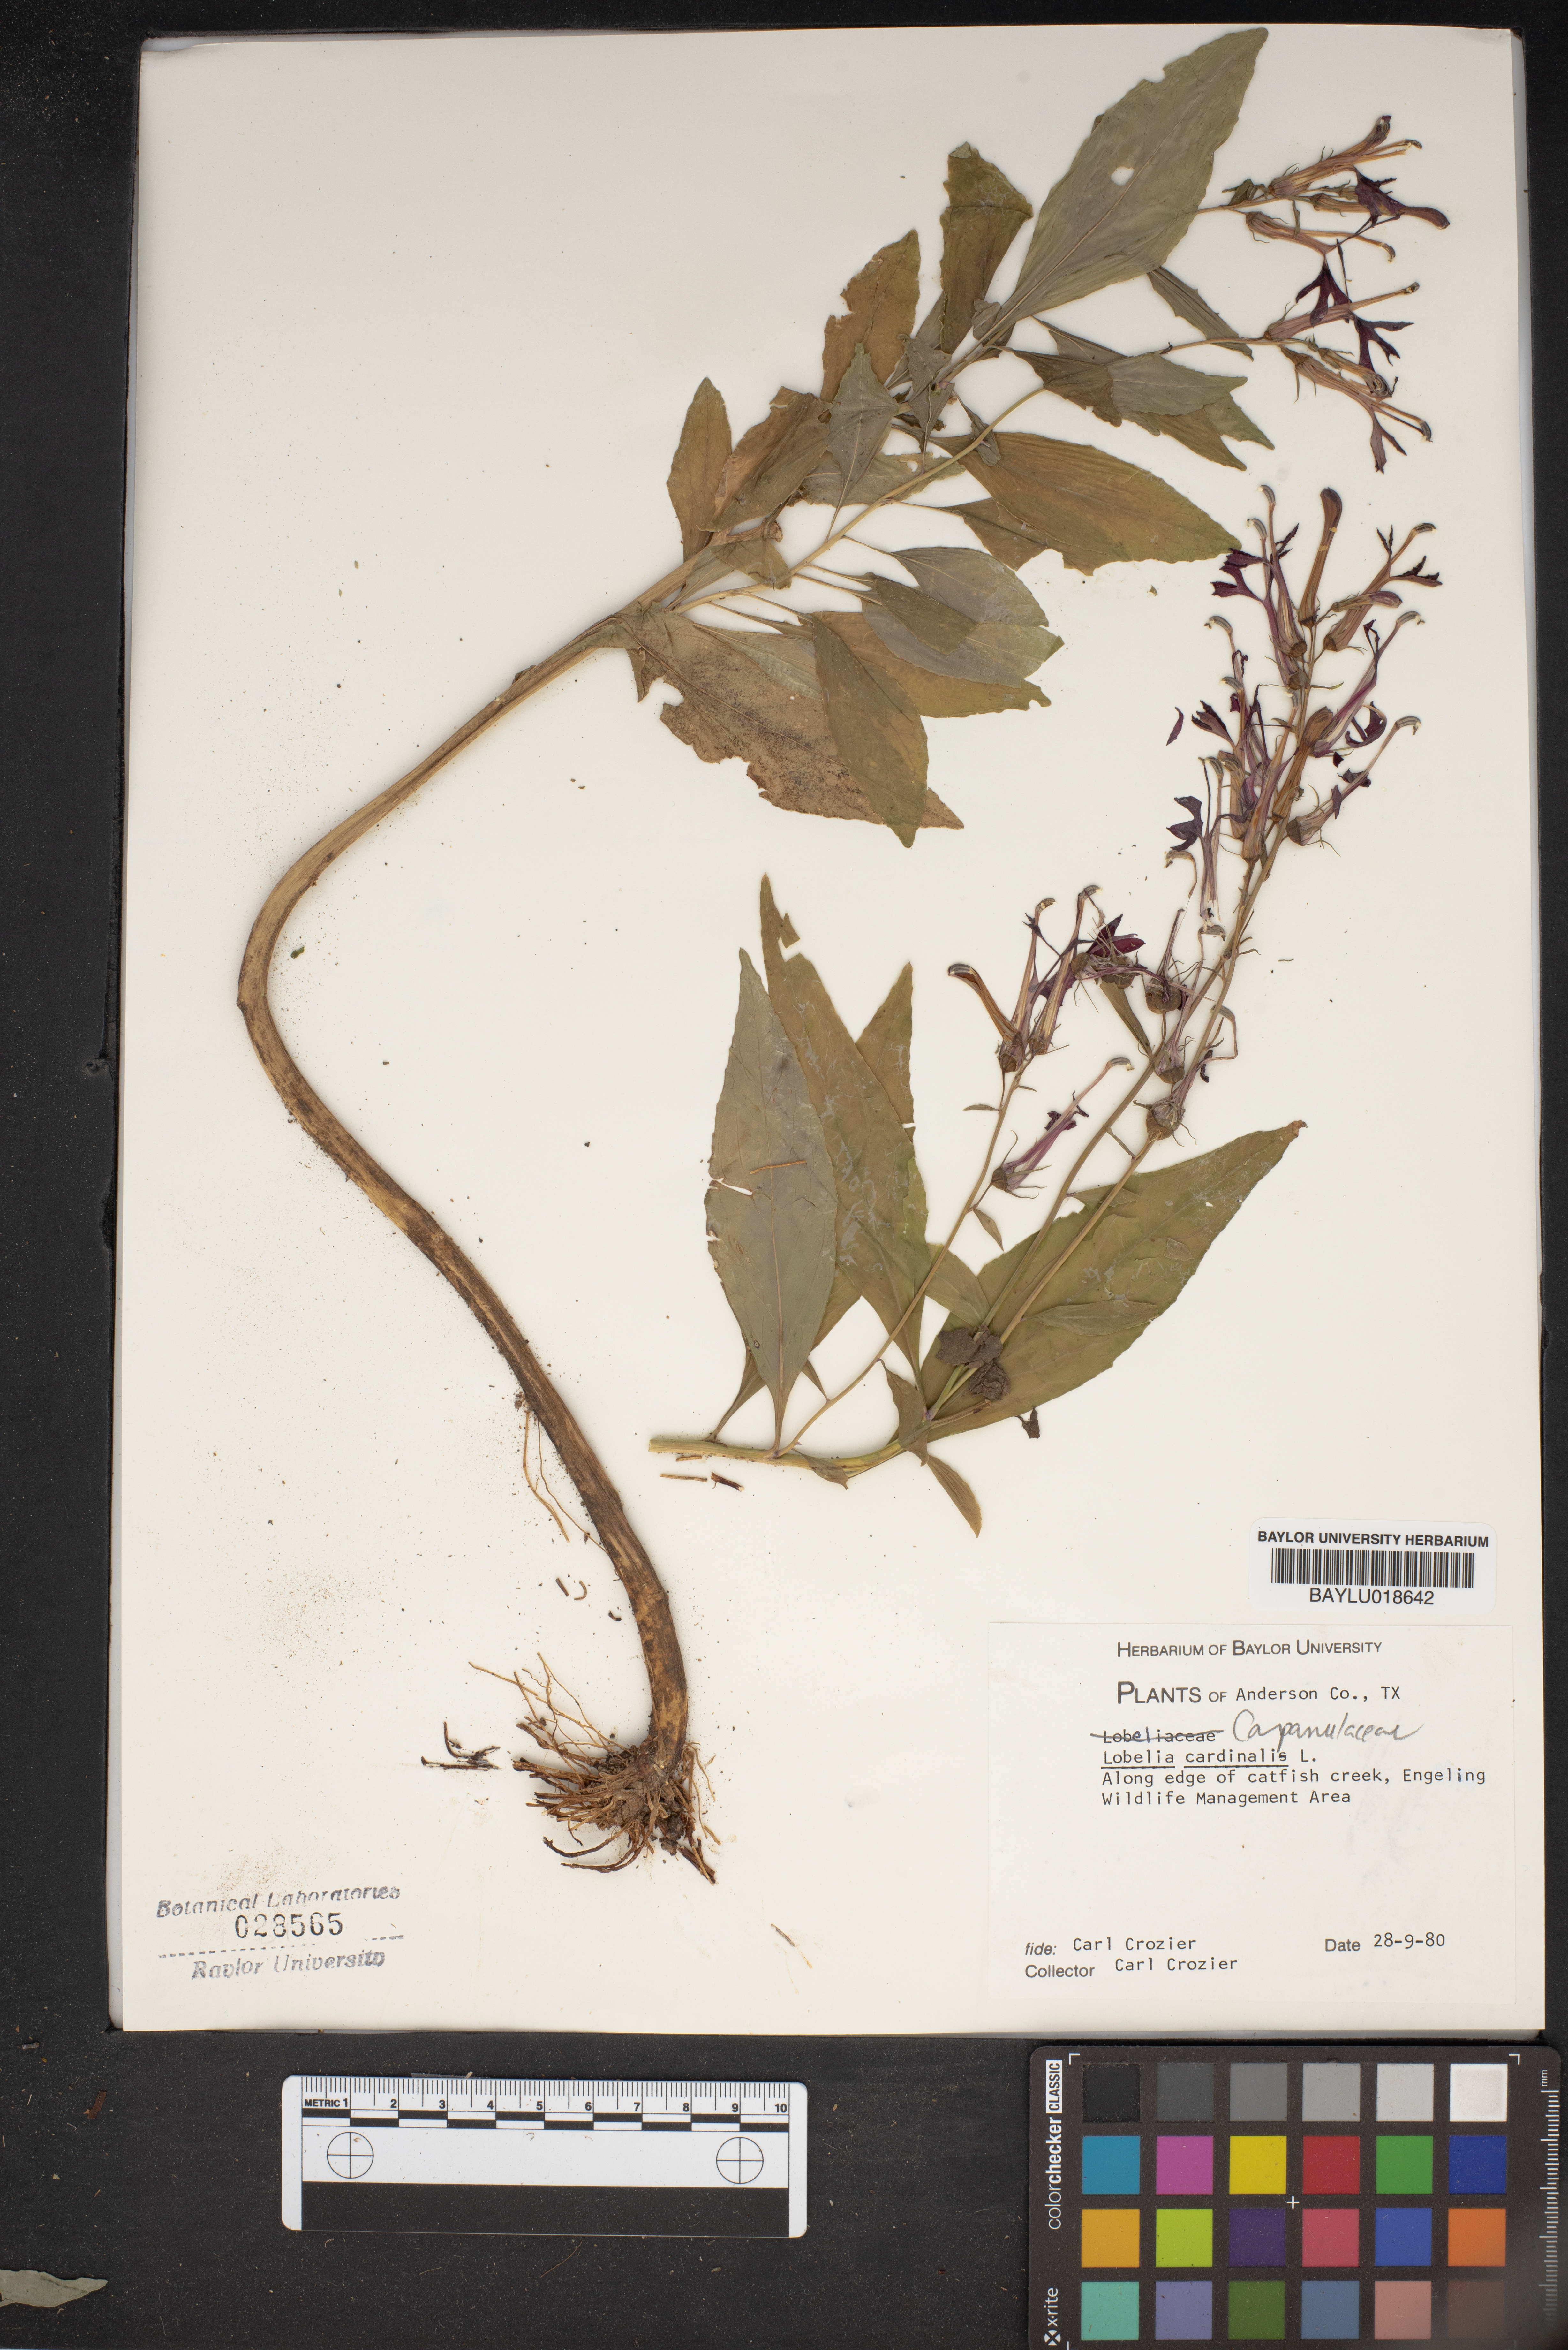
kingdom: Plantae
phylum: Tracheophyta
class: Magnoliopsida
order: Asterales
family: Campanulaceae
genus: Lobelia
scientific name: Lobelia cardinalis
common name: Cardinal flower
